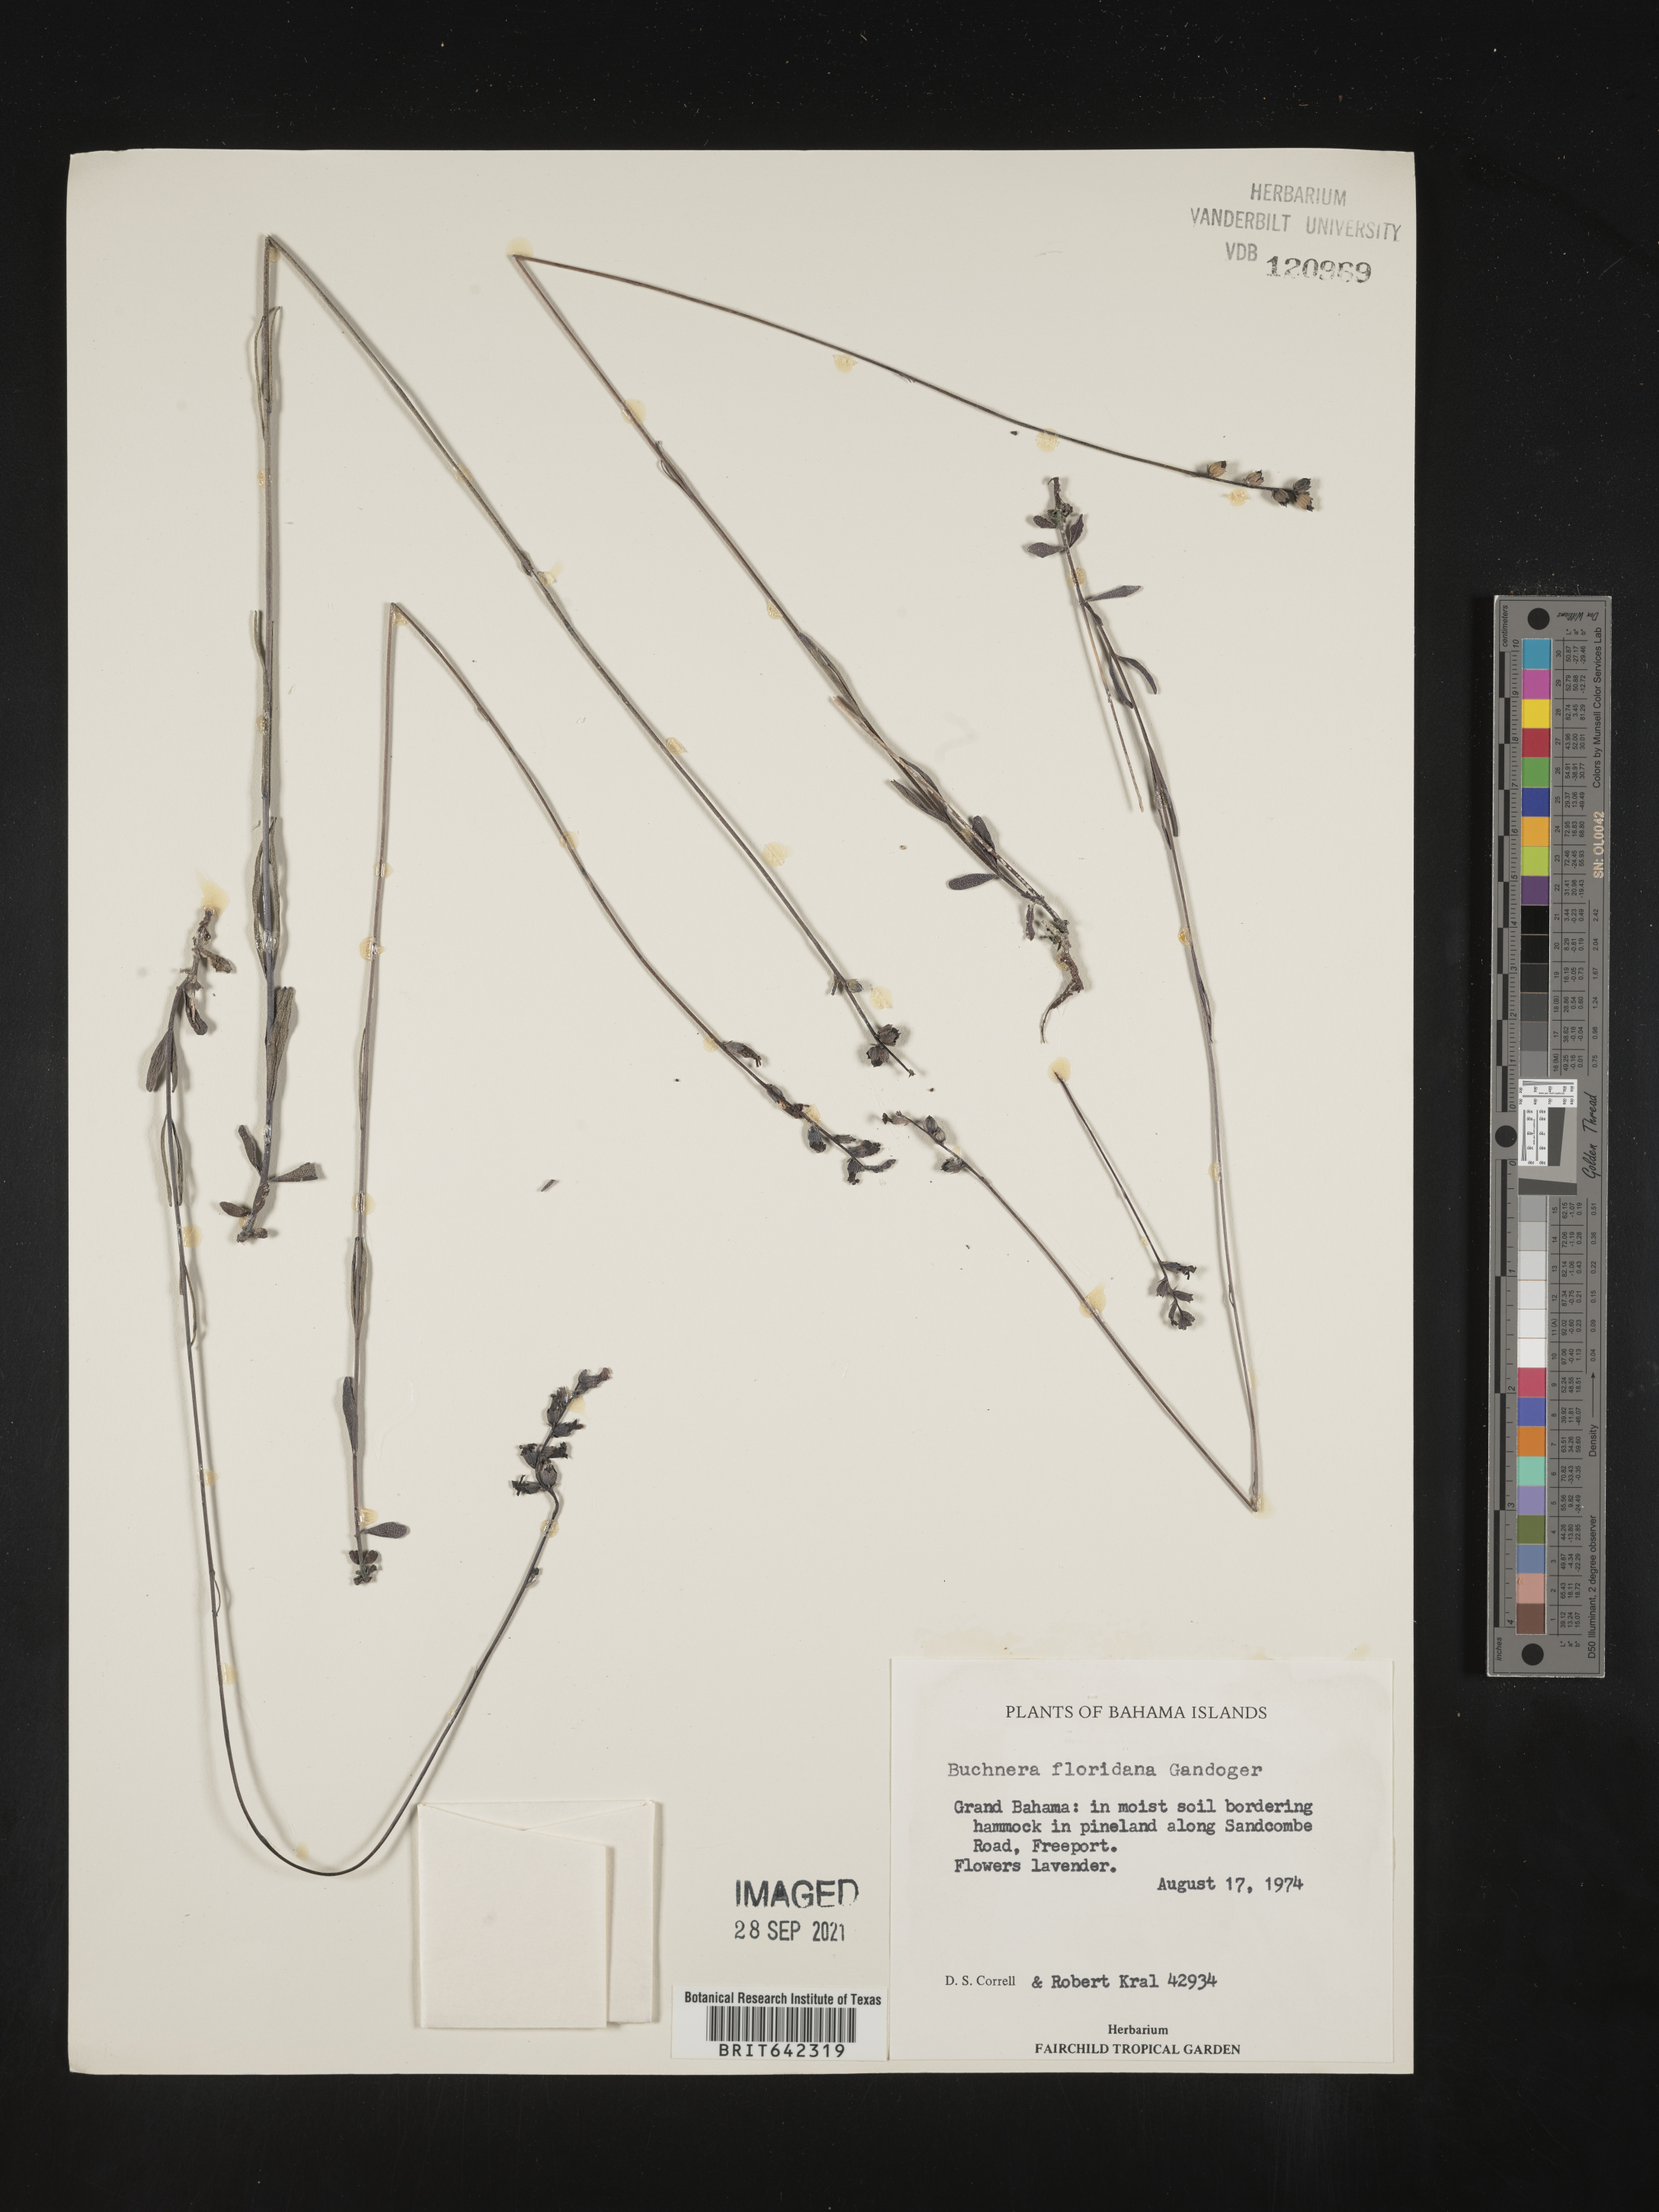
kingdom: Plantae
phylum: Tracheophyta
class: Magnoliopsida
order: Lamiales
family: Orobanchaceae
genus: Buchnera
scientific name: Buchnera
